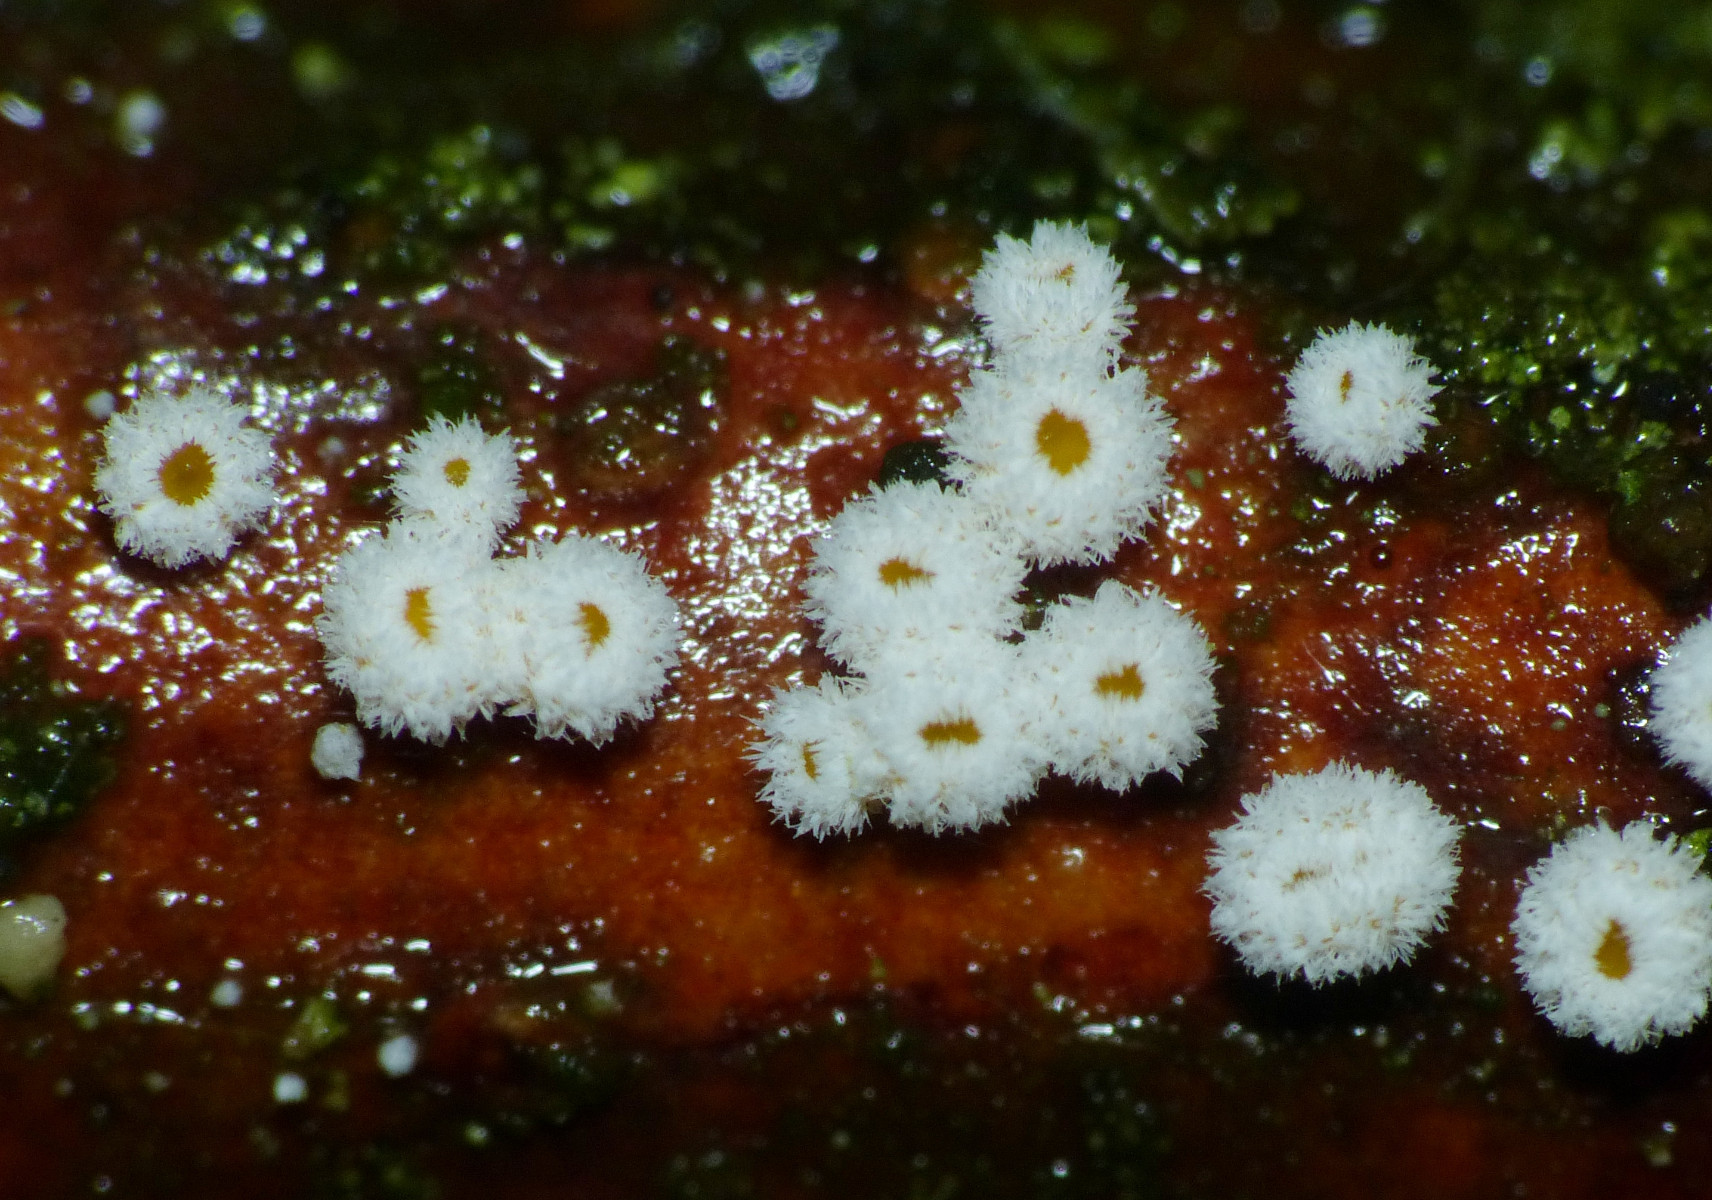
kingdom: Fungi
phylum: Ascomycota
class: Leotiomycetes
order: Helotiales
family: Lachnaceae
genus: Capitotricha
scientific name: Capitotricha bicolor
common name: prægtig frynseskive
